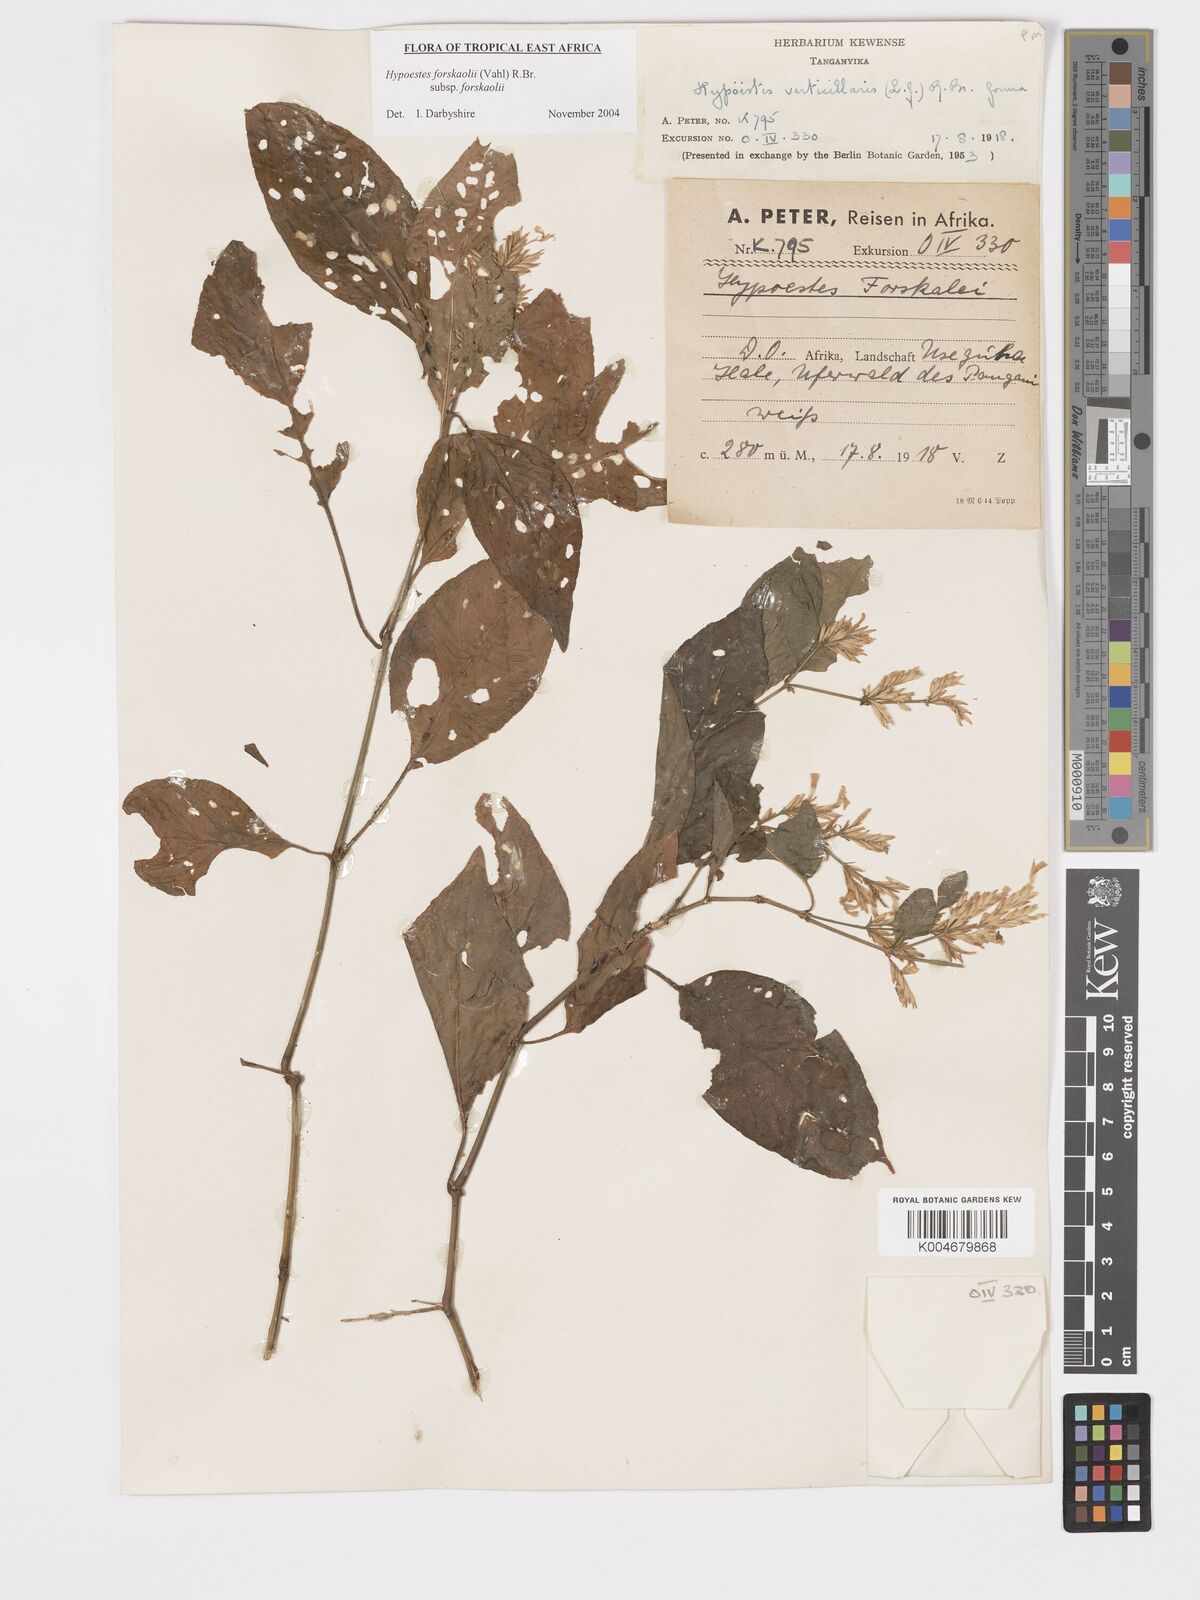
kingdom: Plantae
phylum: Tracheophyta
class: Magnoliopsida
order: Lamiales
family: Acanthaceae
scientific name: Acanthaceae
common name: Acanthaceae
